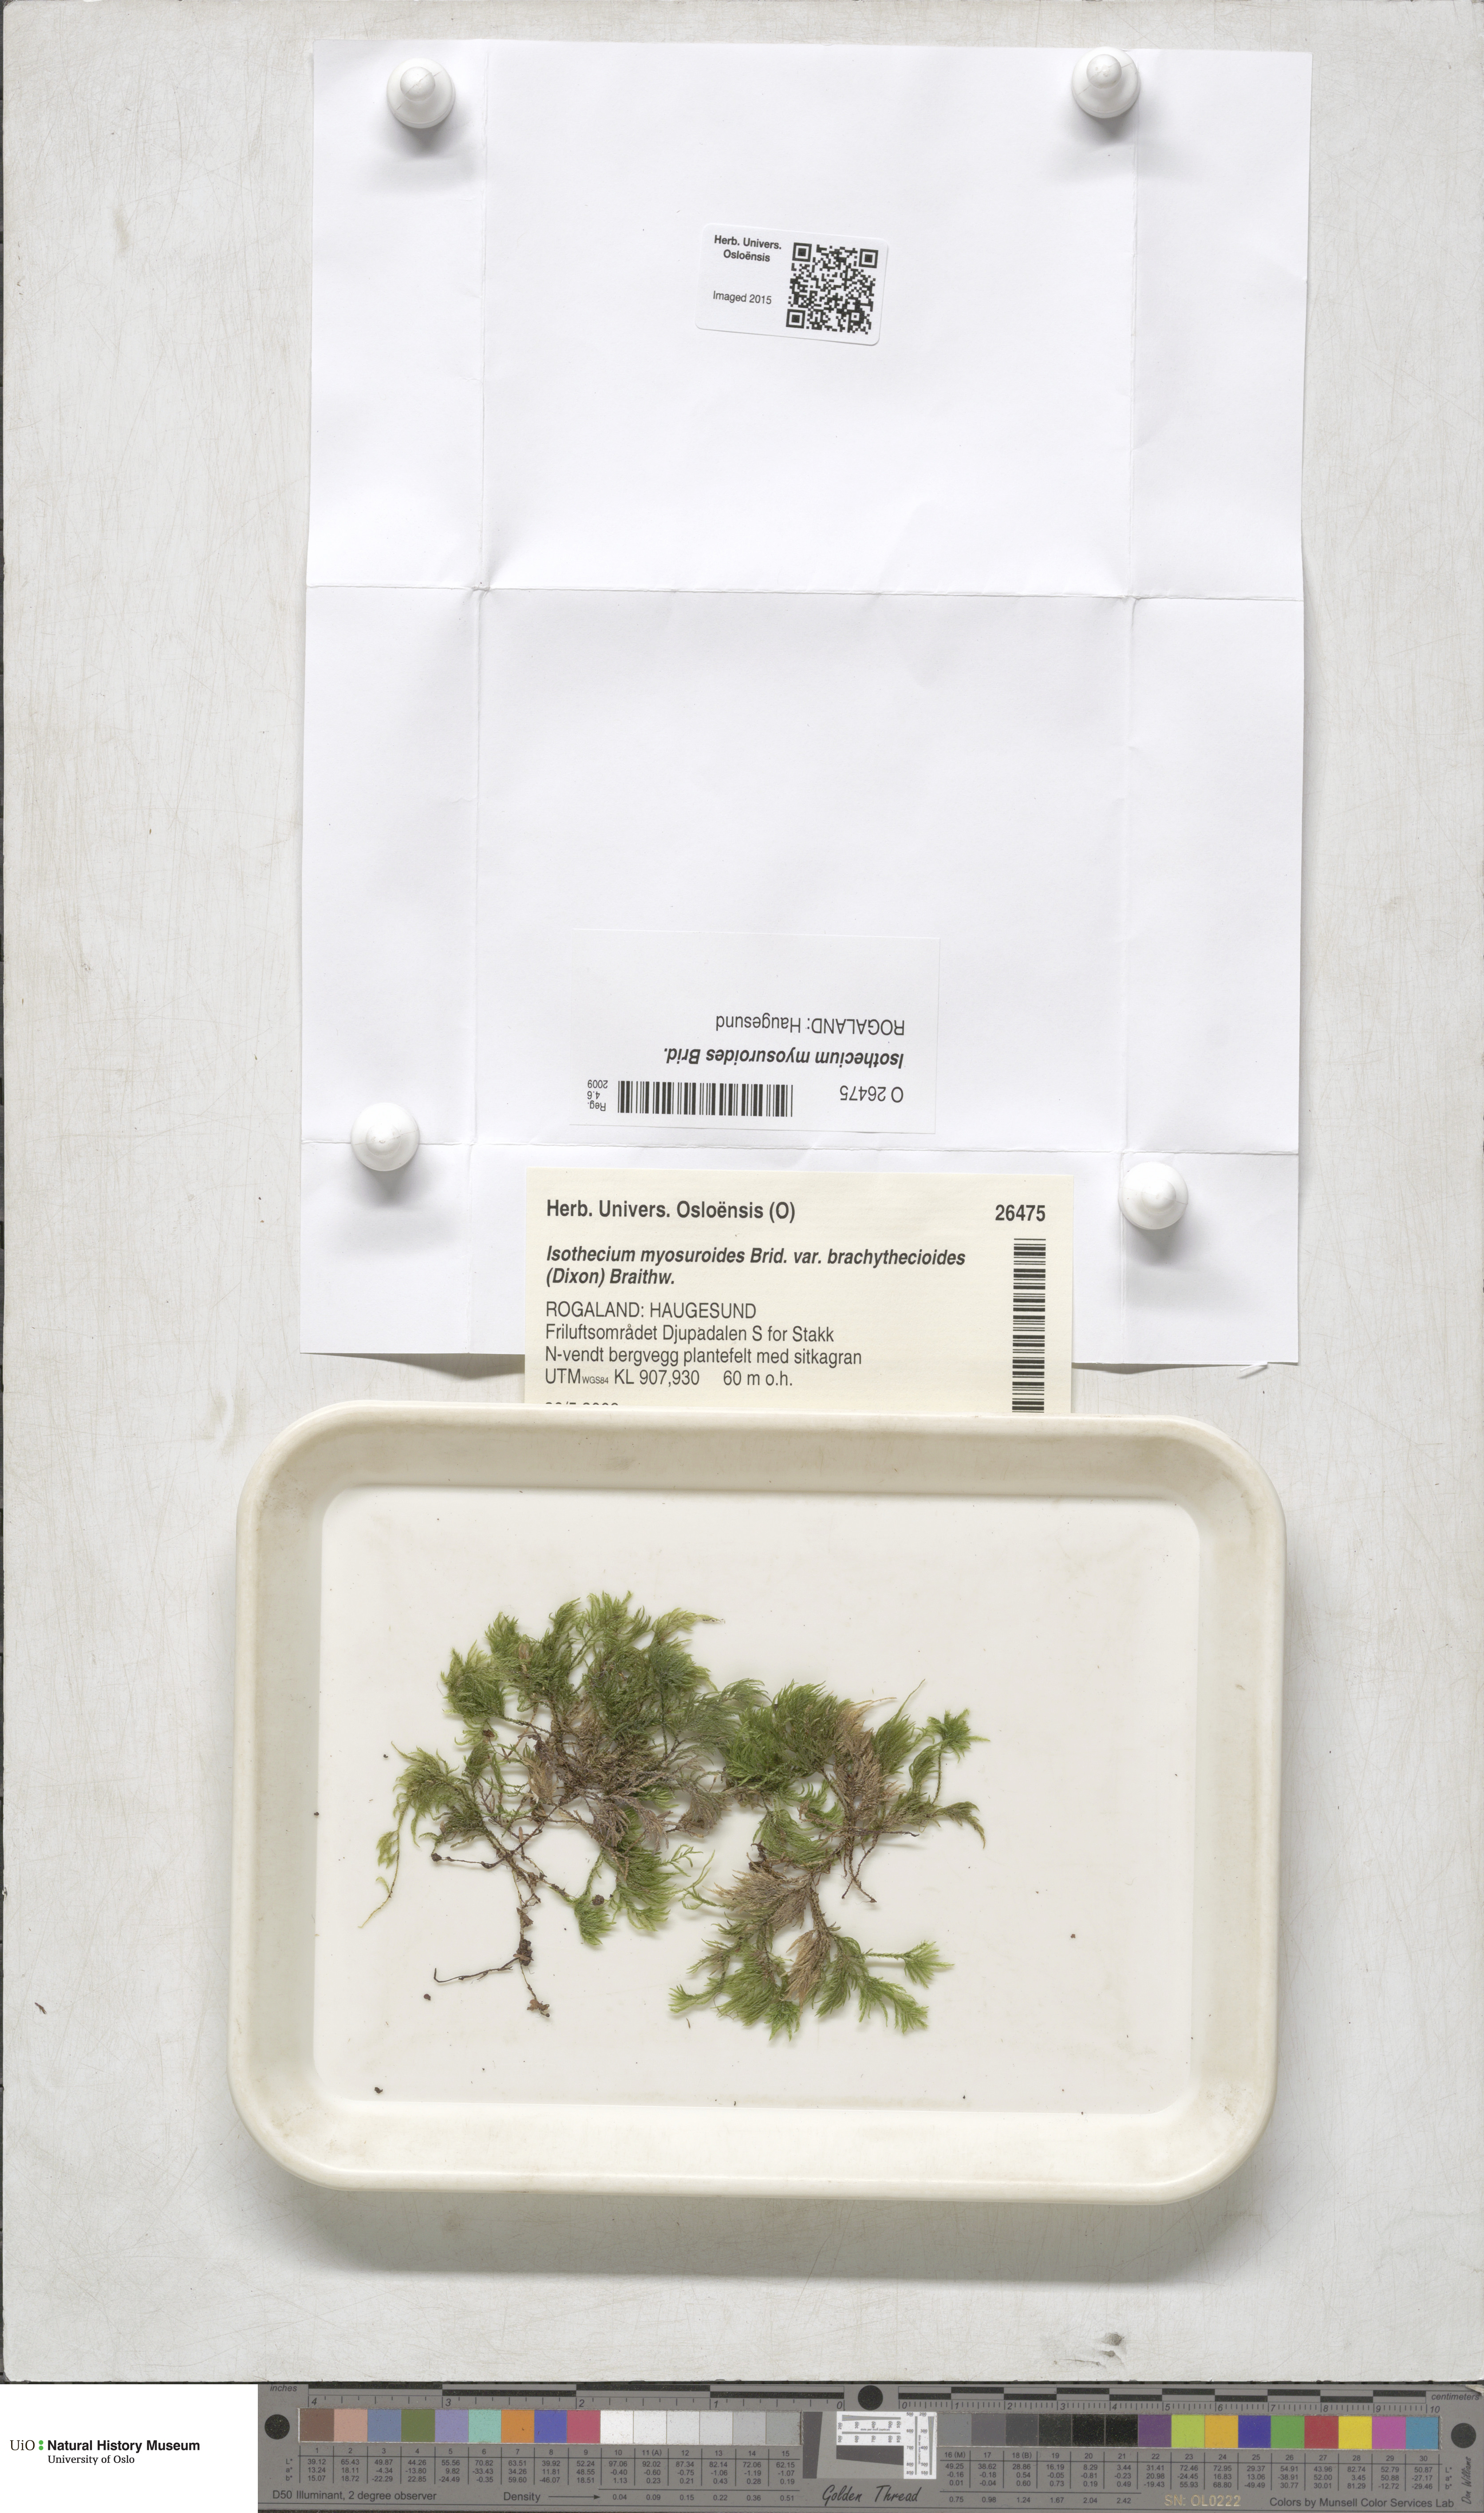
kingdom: Plantae
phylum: Bryophyta
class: Bryopsida
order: Hypnales
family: Lembophyllaceae
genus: Pseudisothecium
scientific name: Pseudisothecium interludens
